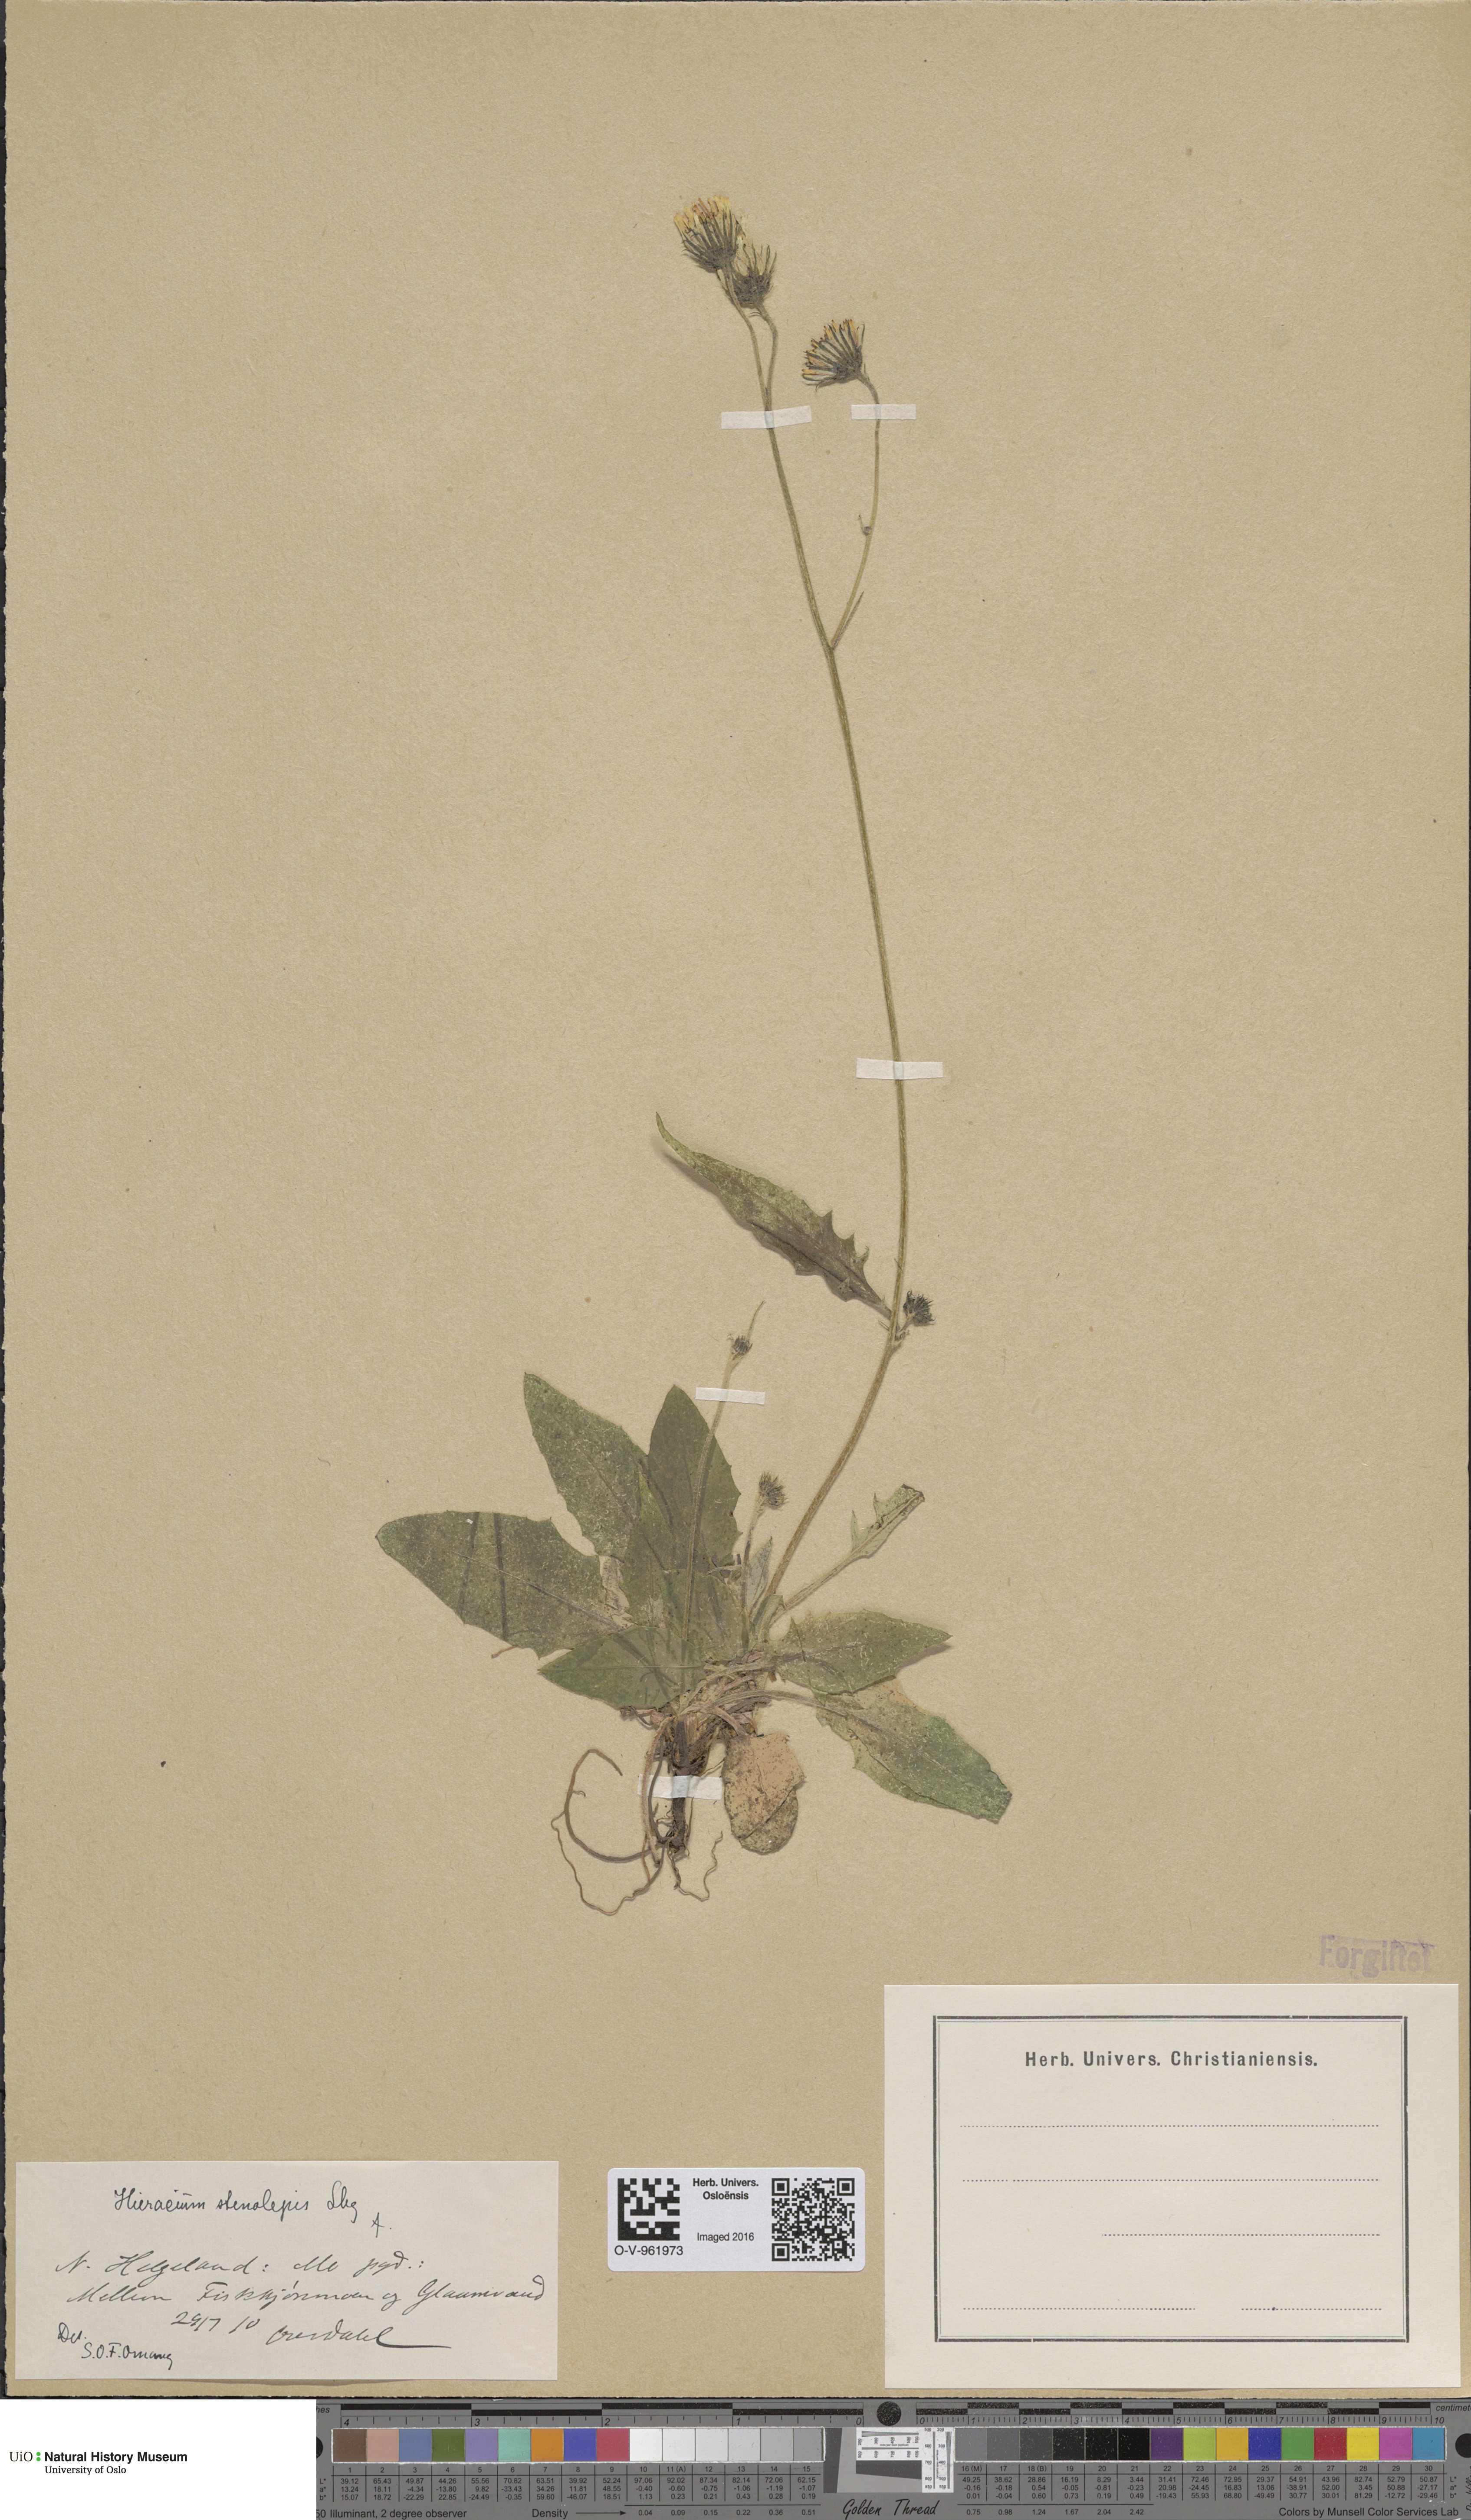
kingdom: Plantae
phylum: Tracheophyta
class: Magnoliopsida
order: Asterales
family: Asteraceae
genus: Hieracium
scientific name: Hieracium bifidum
